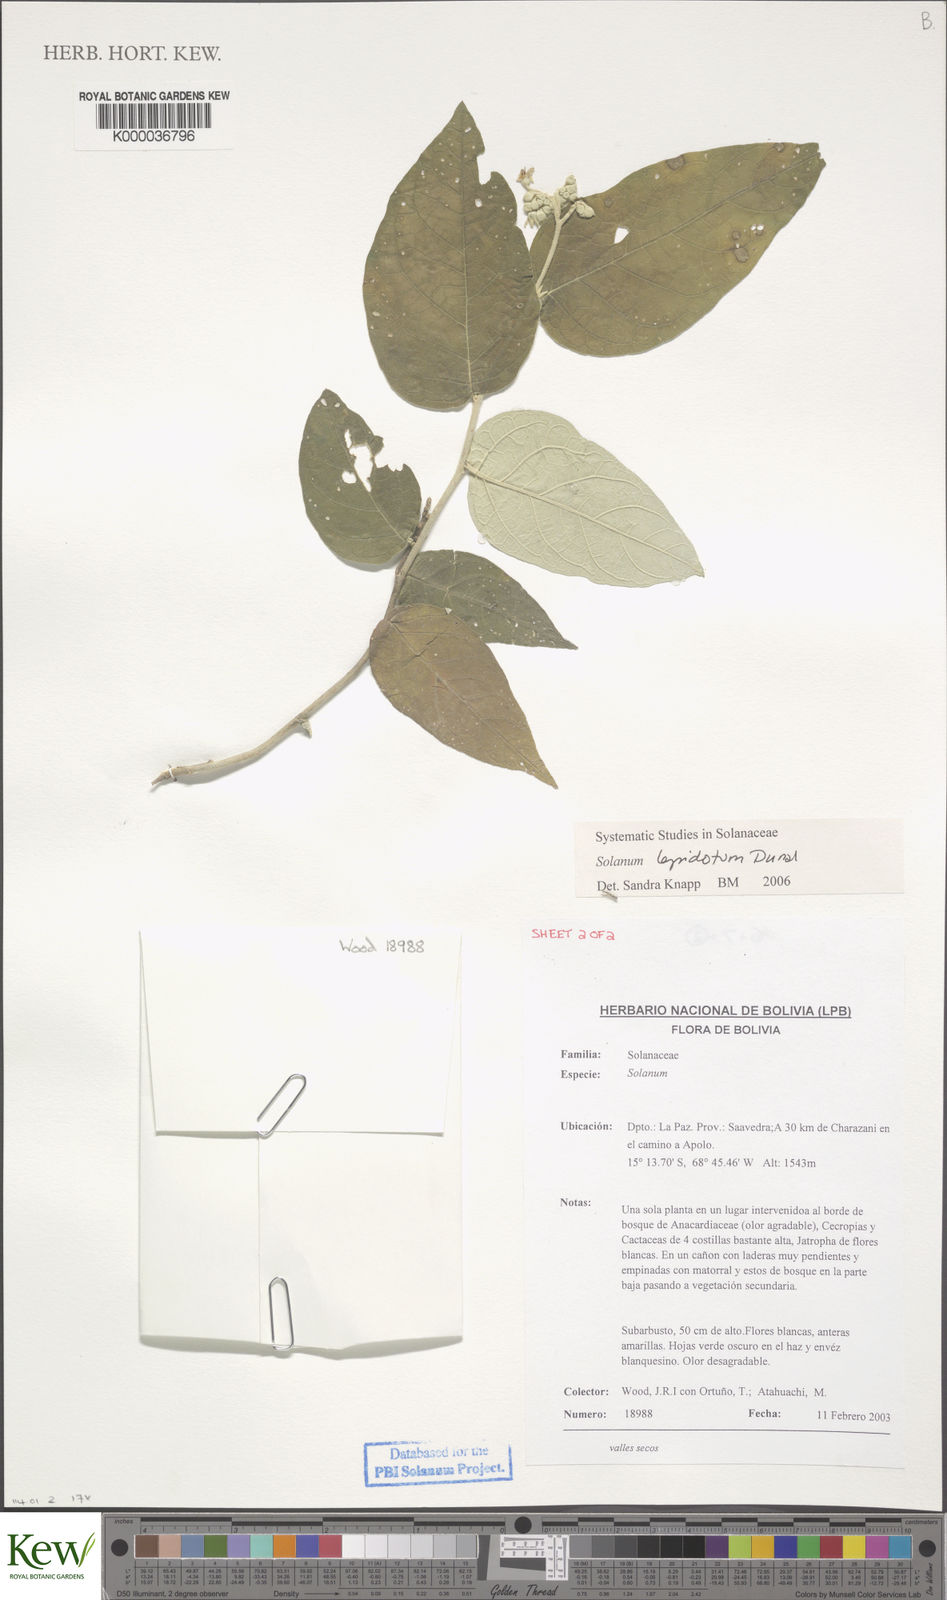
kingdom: Plantae
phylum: Tracheophyta
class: Magnoliopsida
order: Solanales
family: Solanaceae
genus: Solanum
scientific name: Solanum lepidotum
